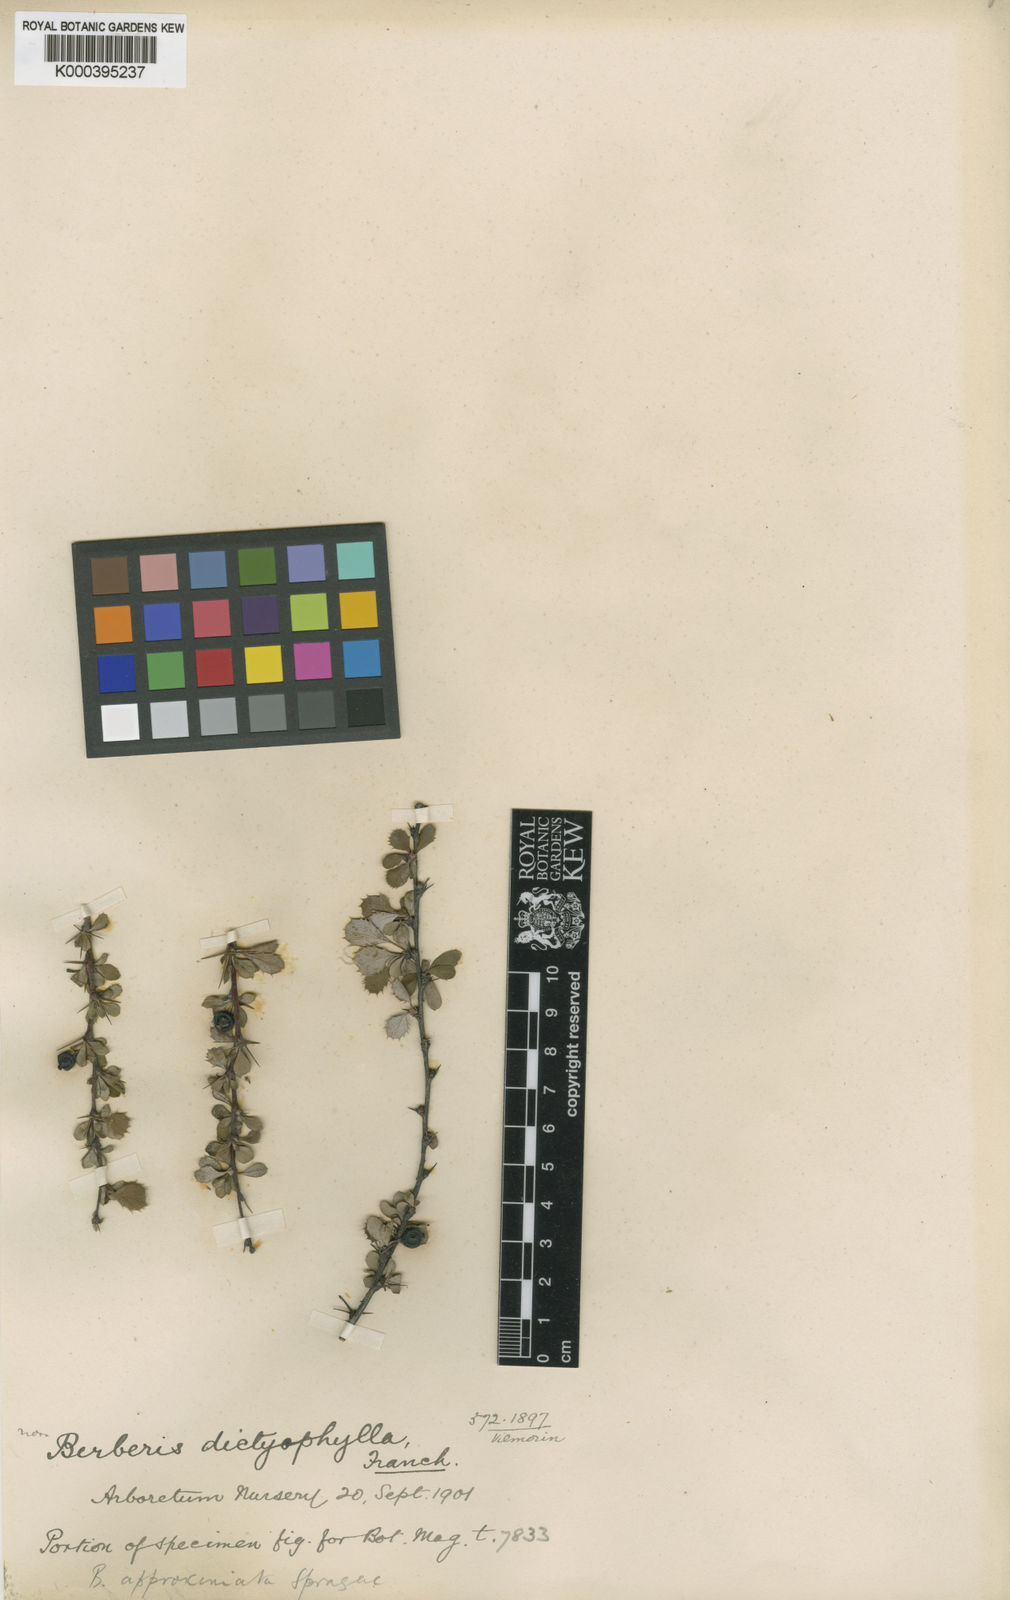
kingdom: Plantae
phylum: Tracheophyta
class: Magnoliopsida
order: Ranunculales
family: Berberidaceae
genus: Berberis
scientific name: Berberis dictyophylla
